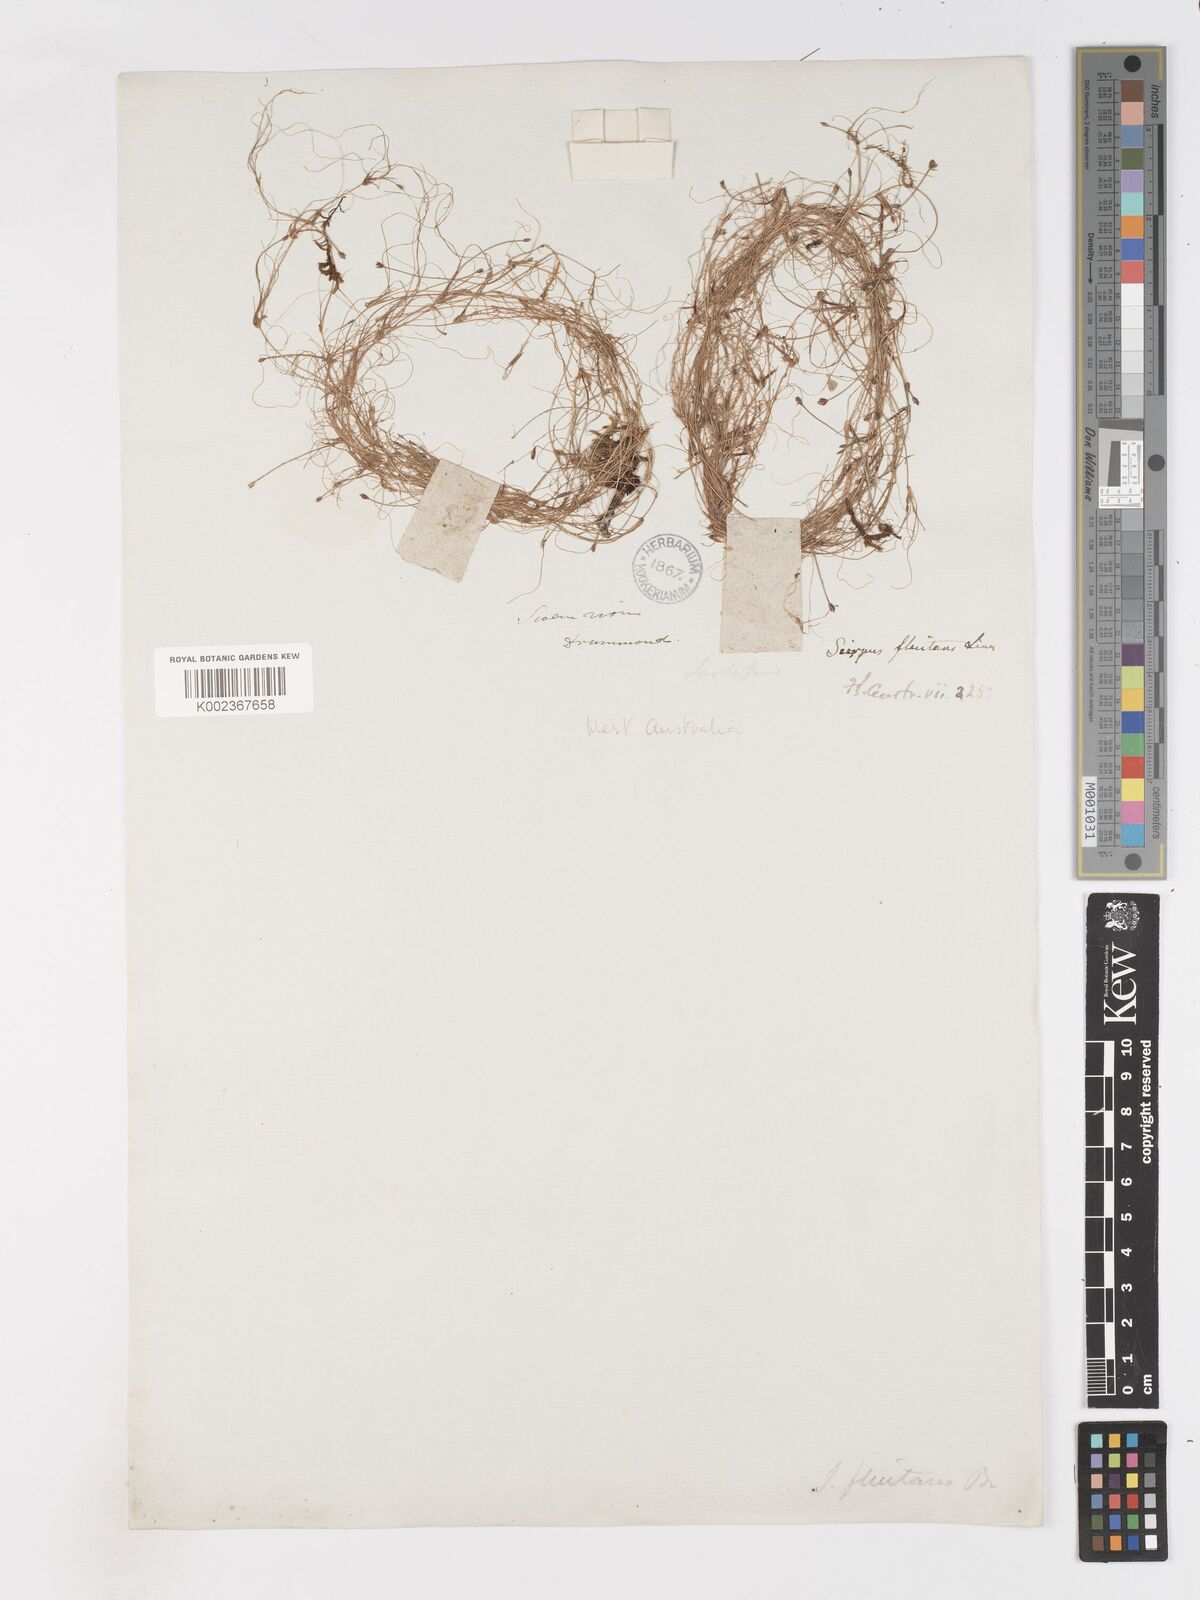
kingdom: Plantae
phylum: Tracheophyta
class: Liliopsida
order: Poales
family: Cyperaceae
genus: Isolepis
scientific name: Isolepis fluitans
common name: Floating club-rush
